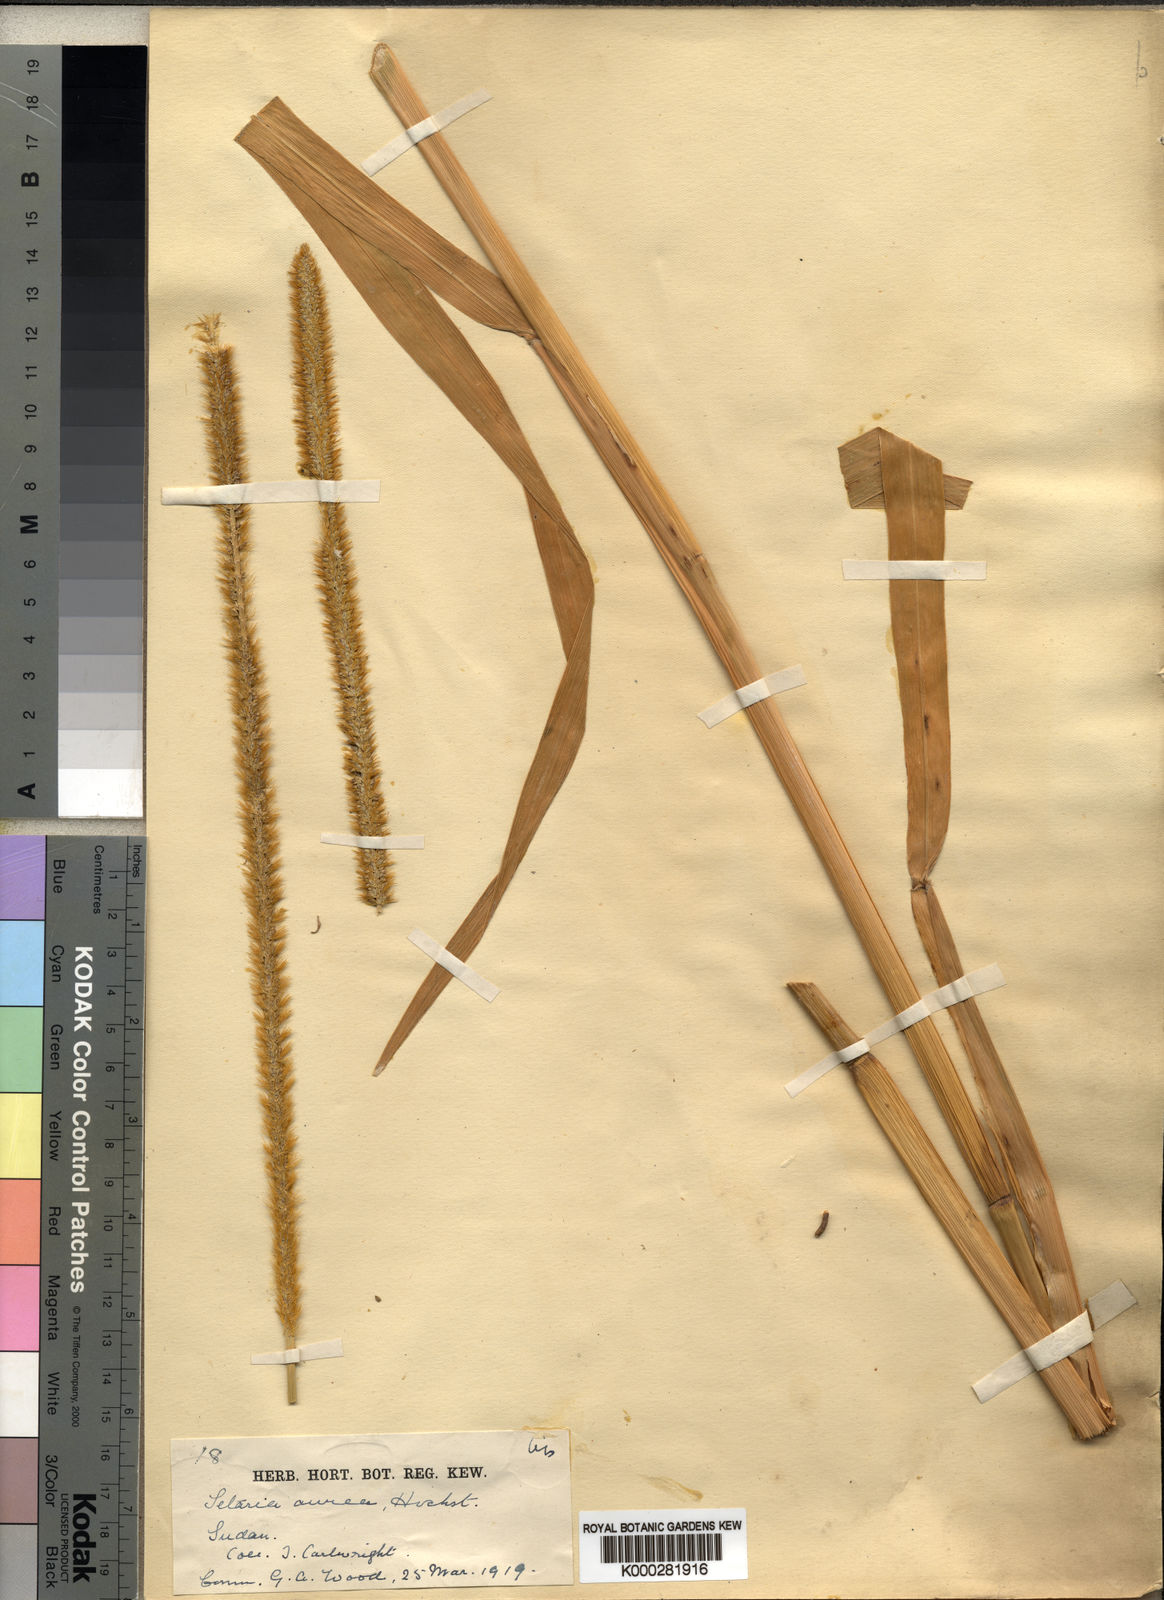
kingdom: Plantae
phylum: Tracheophyta
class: Liliopsida
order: Poales
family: Poaceae
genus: Setaria
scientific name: Setaria sphacelata
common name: African bristlegrass
